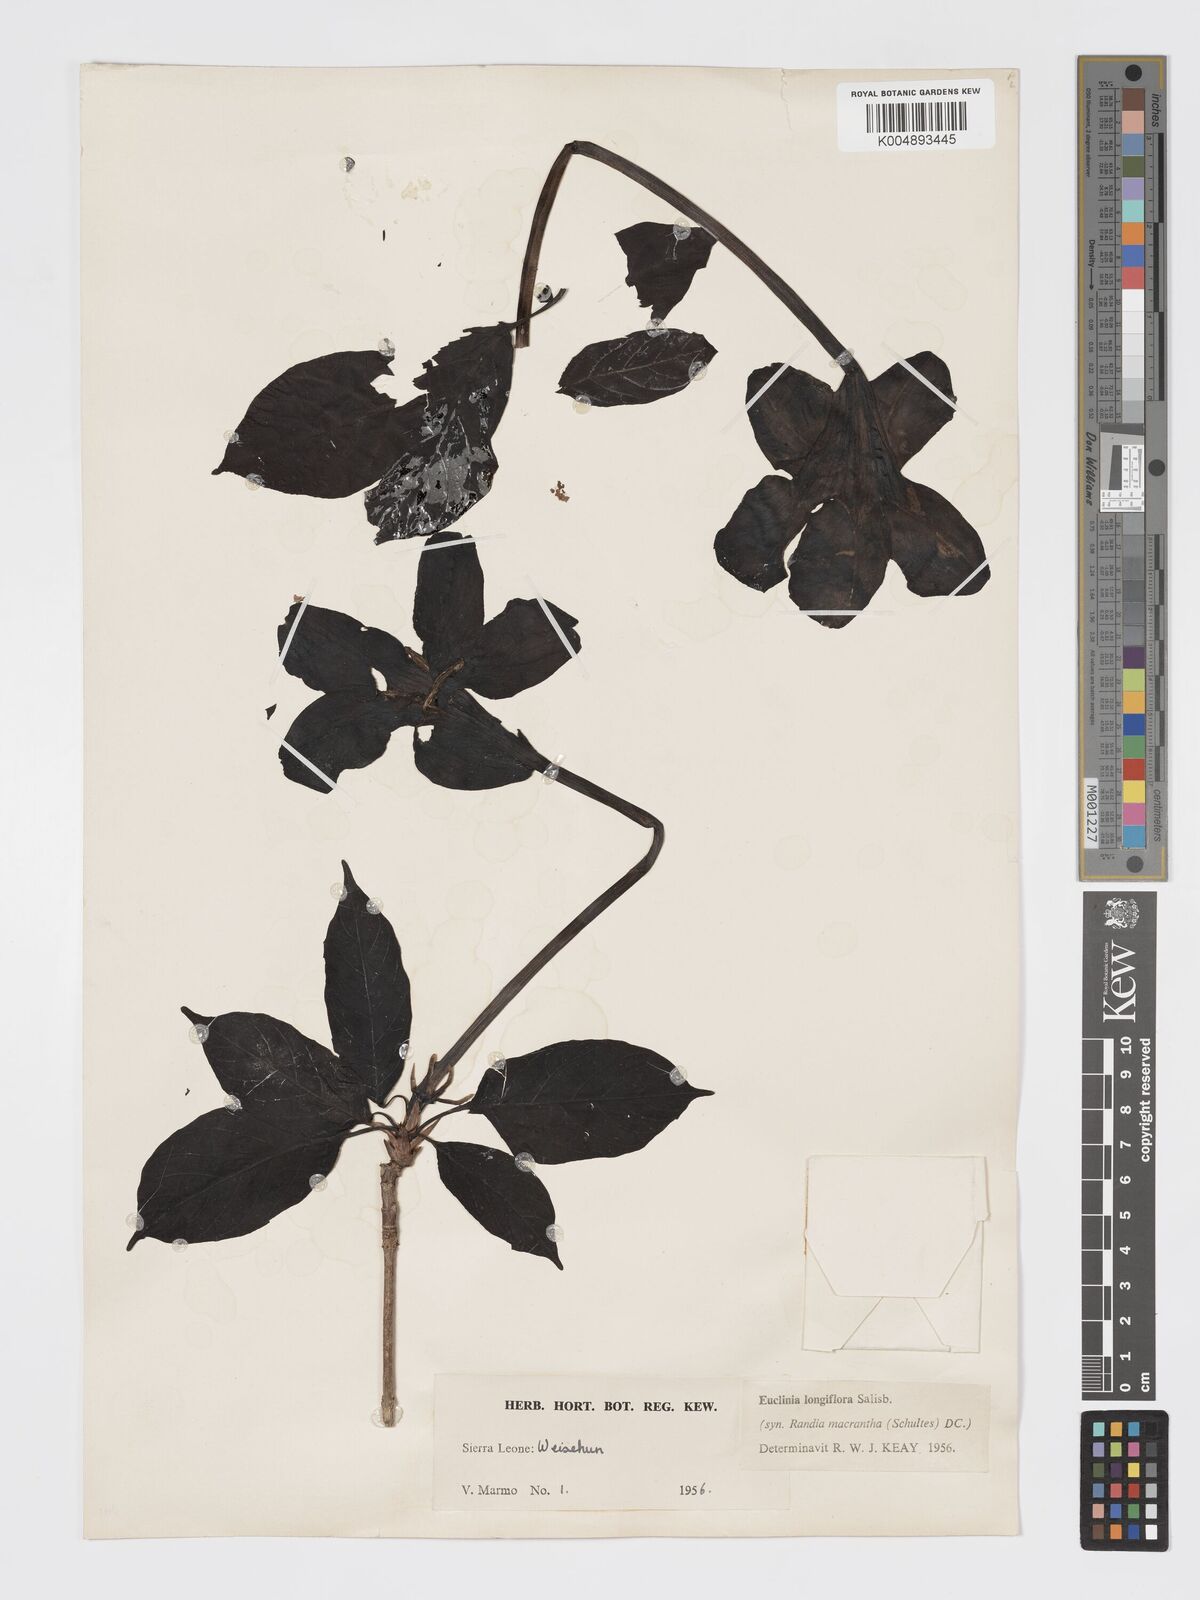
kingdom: Plantae
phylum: Tracheophyta
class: Magnoliopsida
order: Gentianales
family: Rubiaceae
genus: Euclinia
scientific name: Euclinia longiflora
